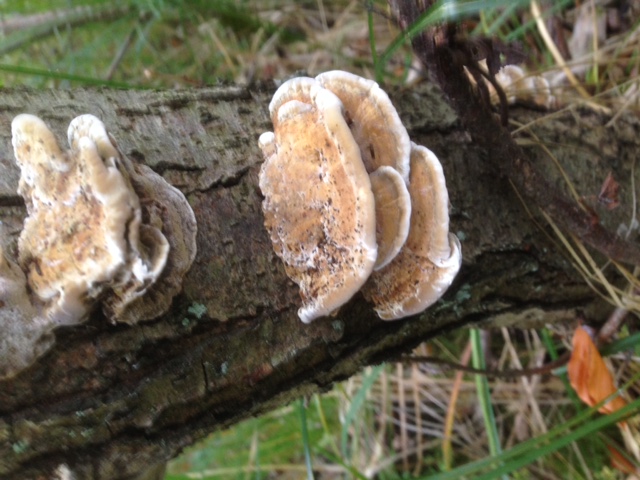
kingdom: Fungi
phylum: Basidiomycota
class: Agaricomycetes
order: Hymenochaetales
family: Hymenochaetaceae
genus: Xanthoporia
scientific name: Xanthoporia radiata
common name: elle-spejlporesvamp
